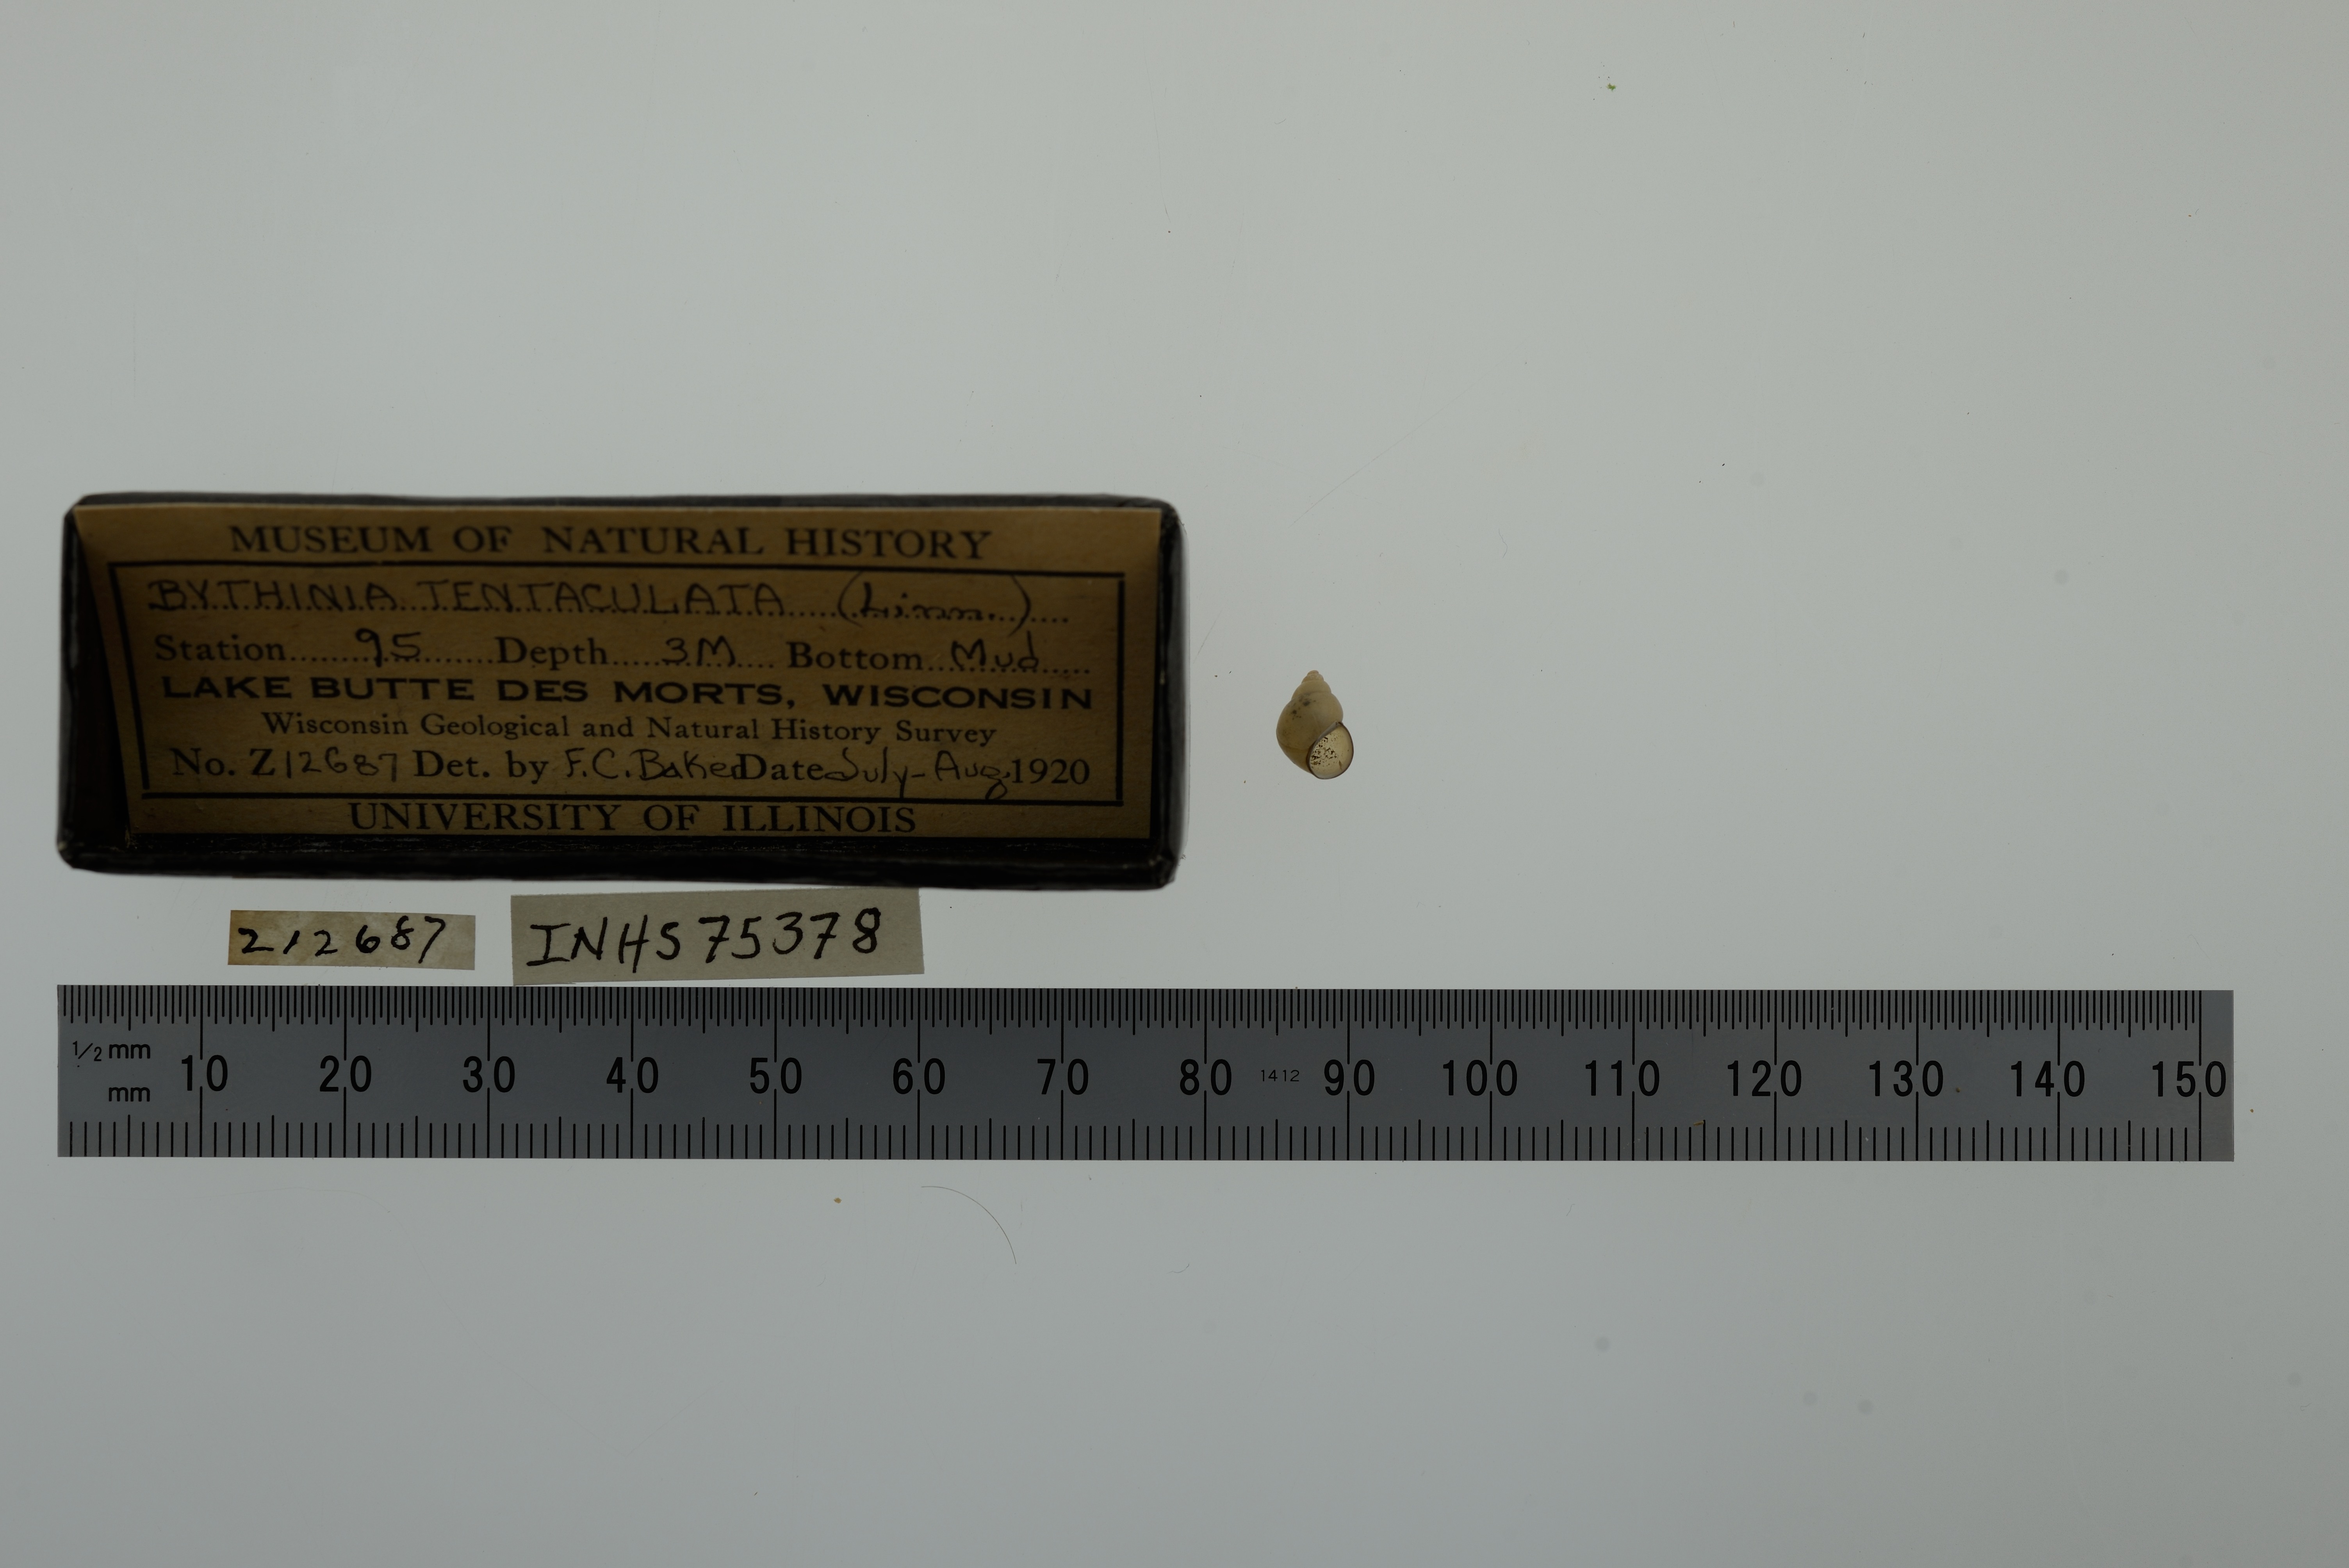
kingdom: Animalia
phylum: Mollusca
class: Gastropoda
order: Littorinimorpha
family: Bithyniidae
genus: Bithynia
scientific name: Bithynia tentaculata
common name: Common bithynia
